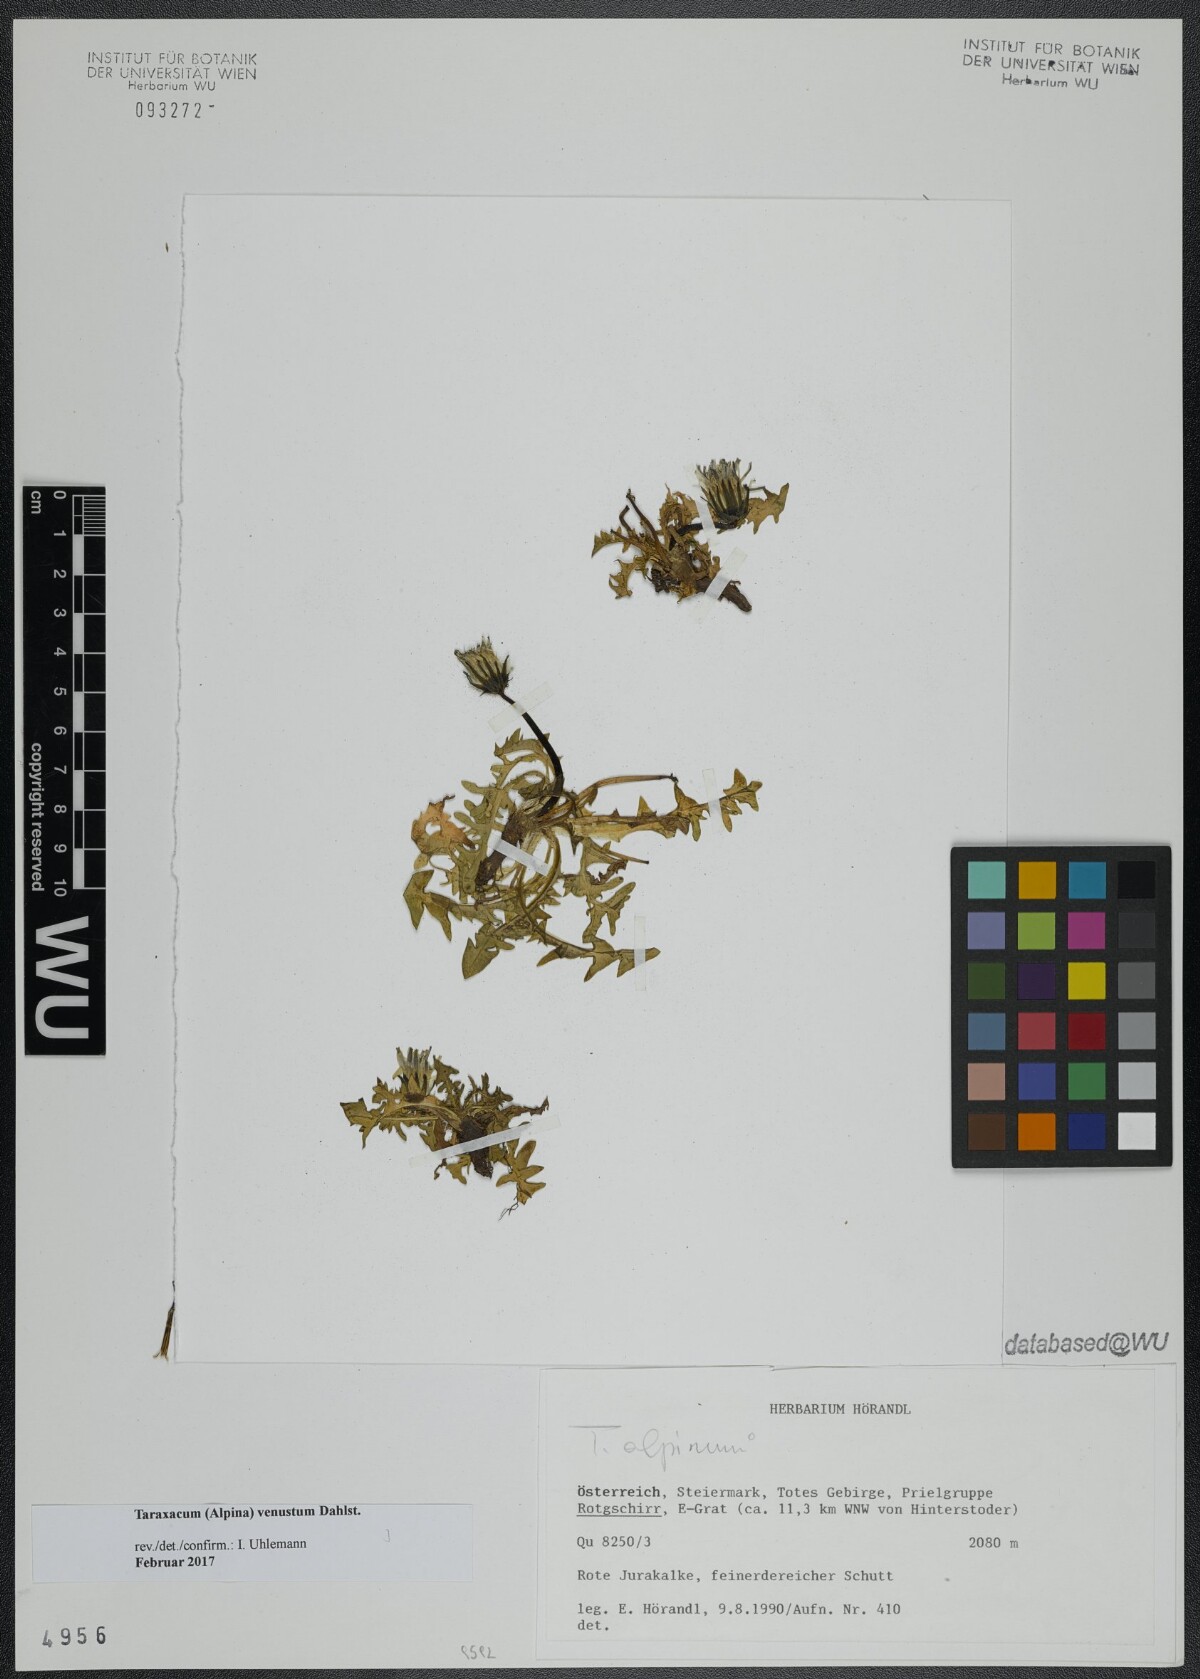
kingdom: Plantae
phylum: Tracheophyta
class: Magnoliopsida
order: Asterales
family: Asteraceae
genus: Taraxacum
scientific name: Taraxacum venustum
